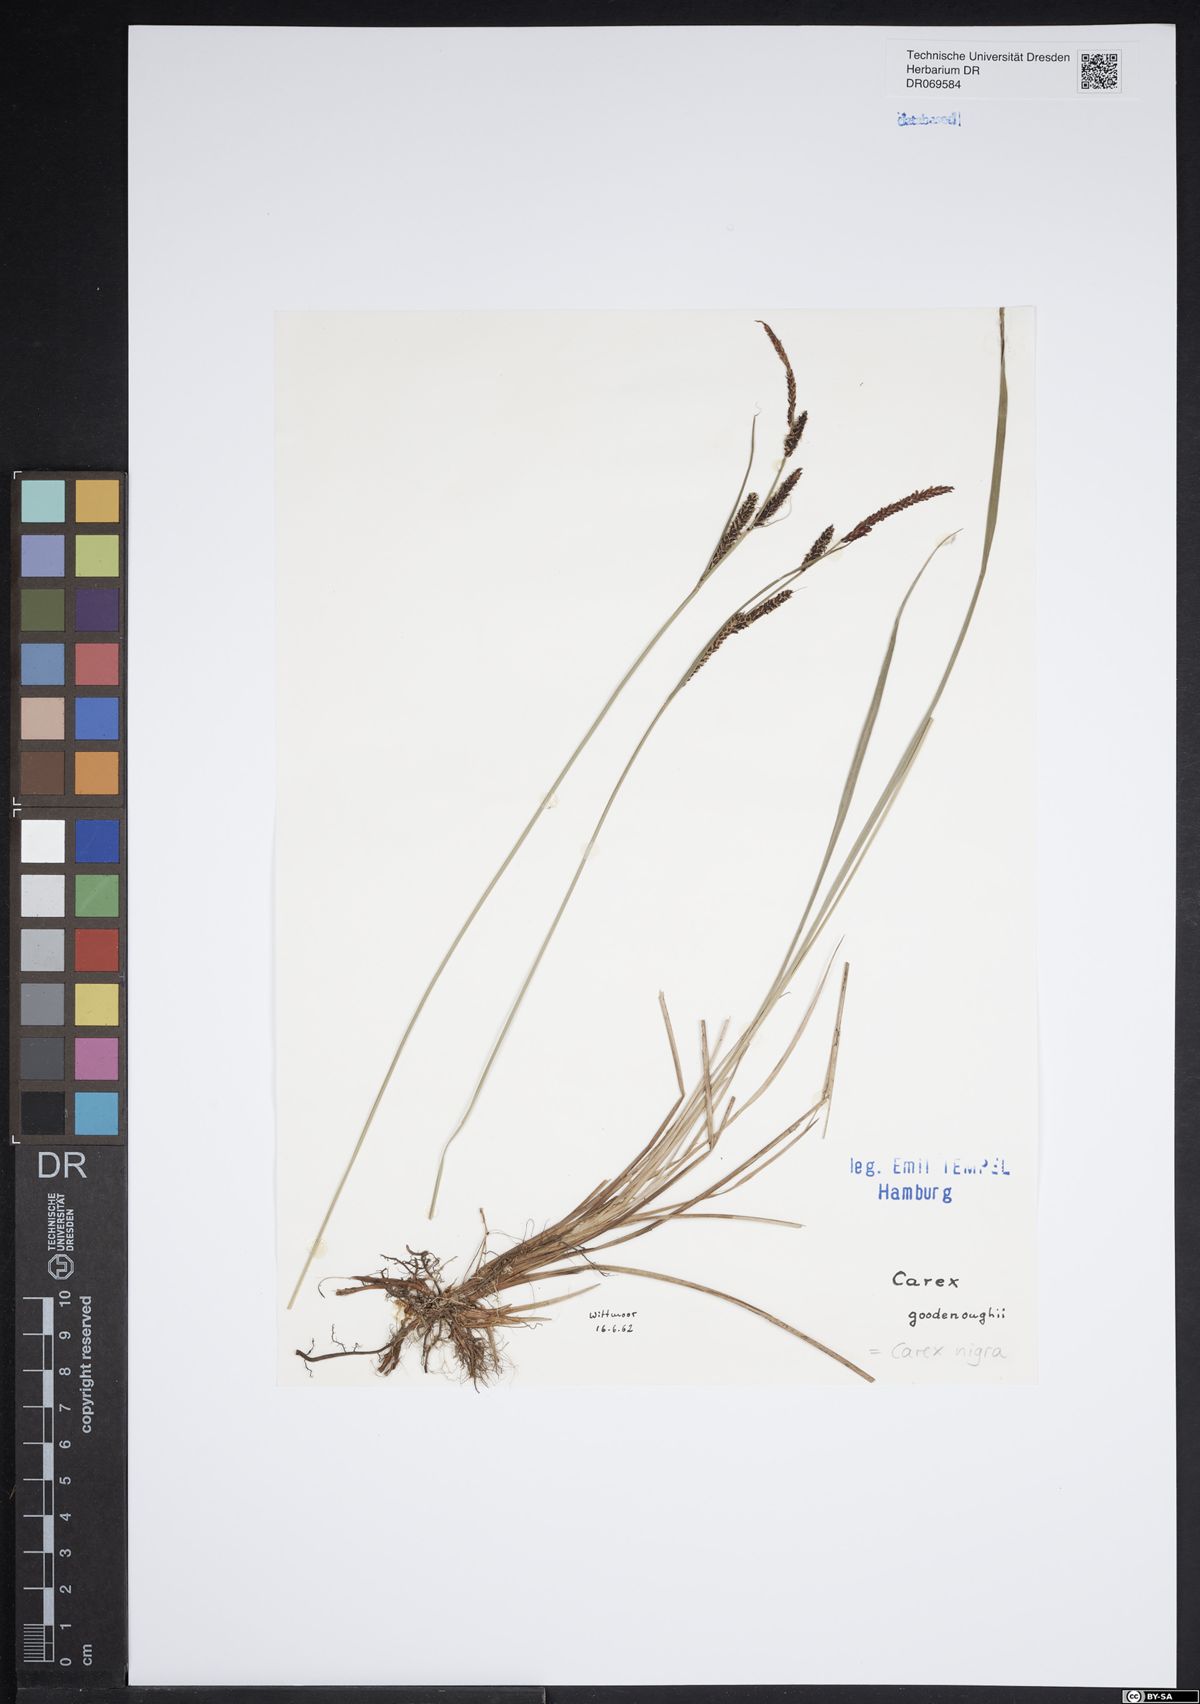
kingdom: Plantae
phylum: Tracheophyta
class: Liliopsida
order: Poales
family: Cyperaceae
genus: Carex
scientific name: Carex nigra
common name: Common sedge
